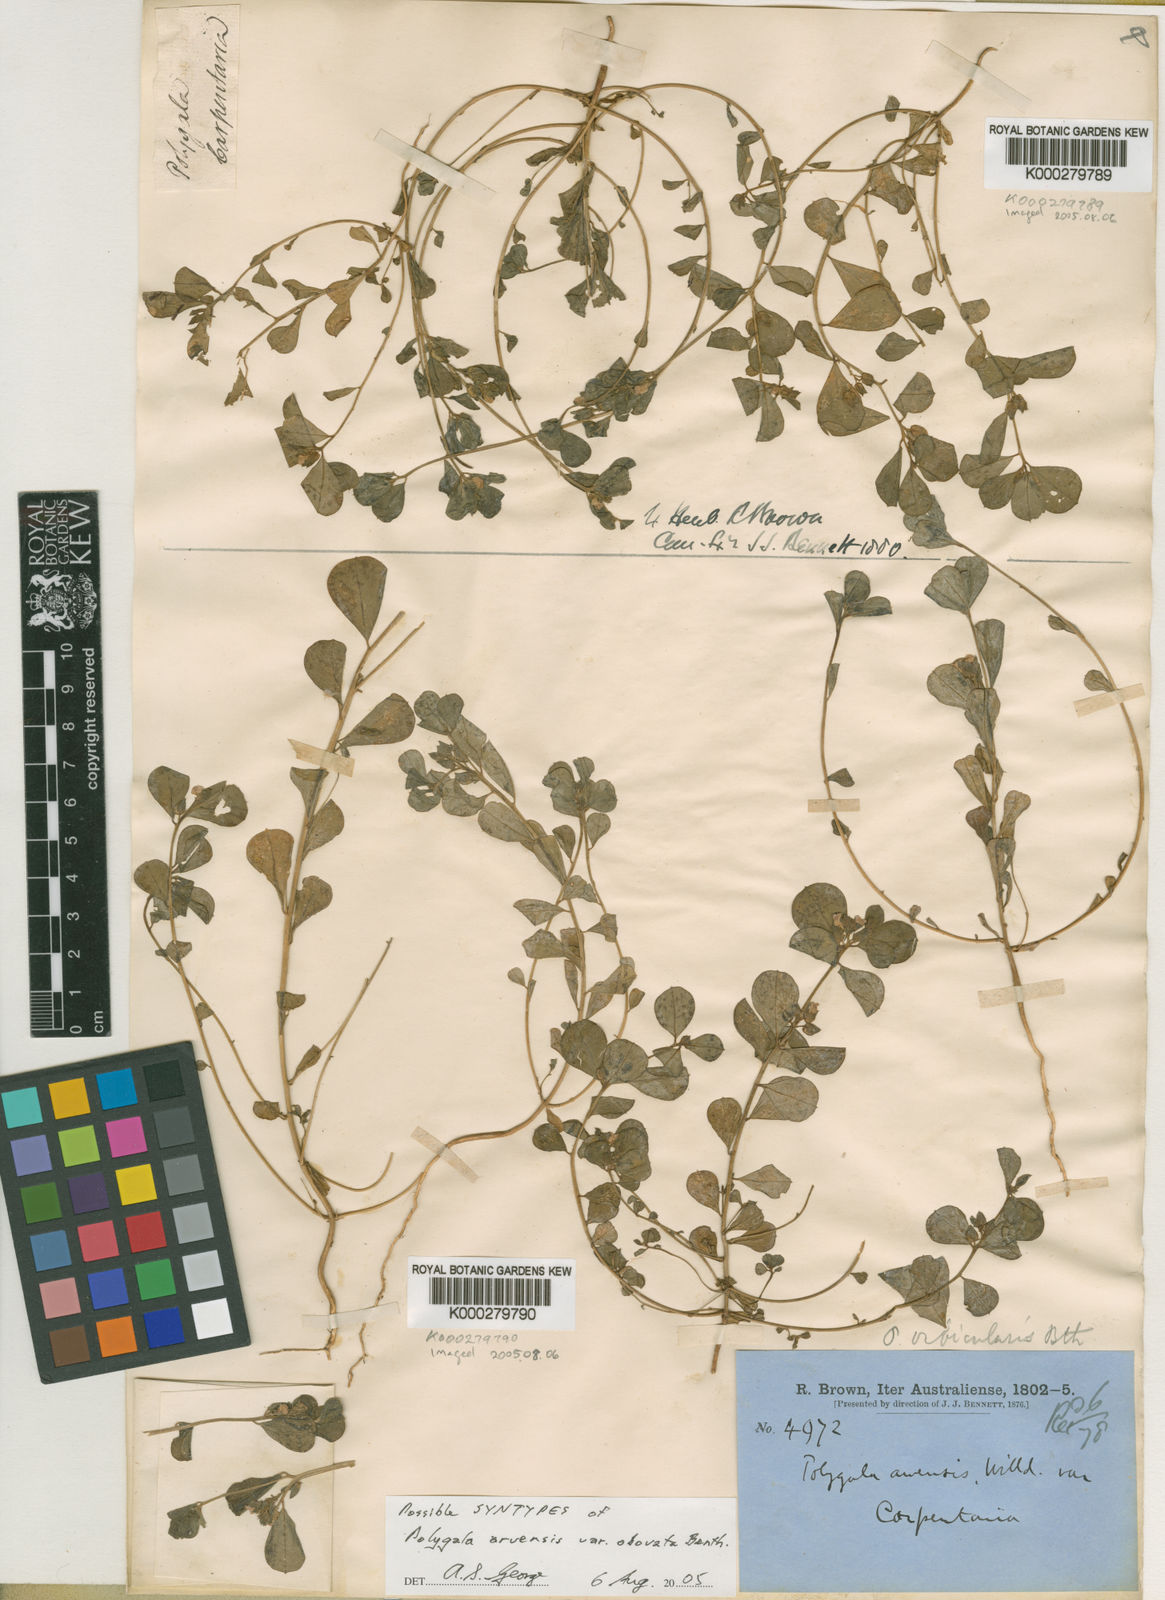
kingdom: Plantae
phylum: Tracheophyta
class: Magnoliopsida
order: Fabales
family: Polygalaceae
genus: Polygala
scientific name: Polygala glomerata
